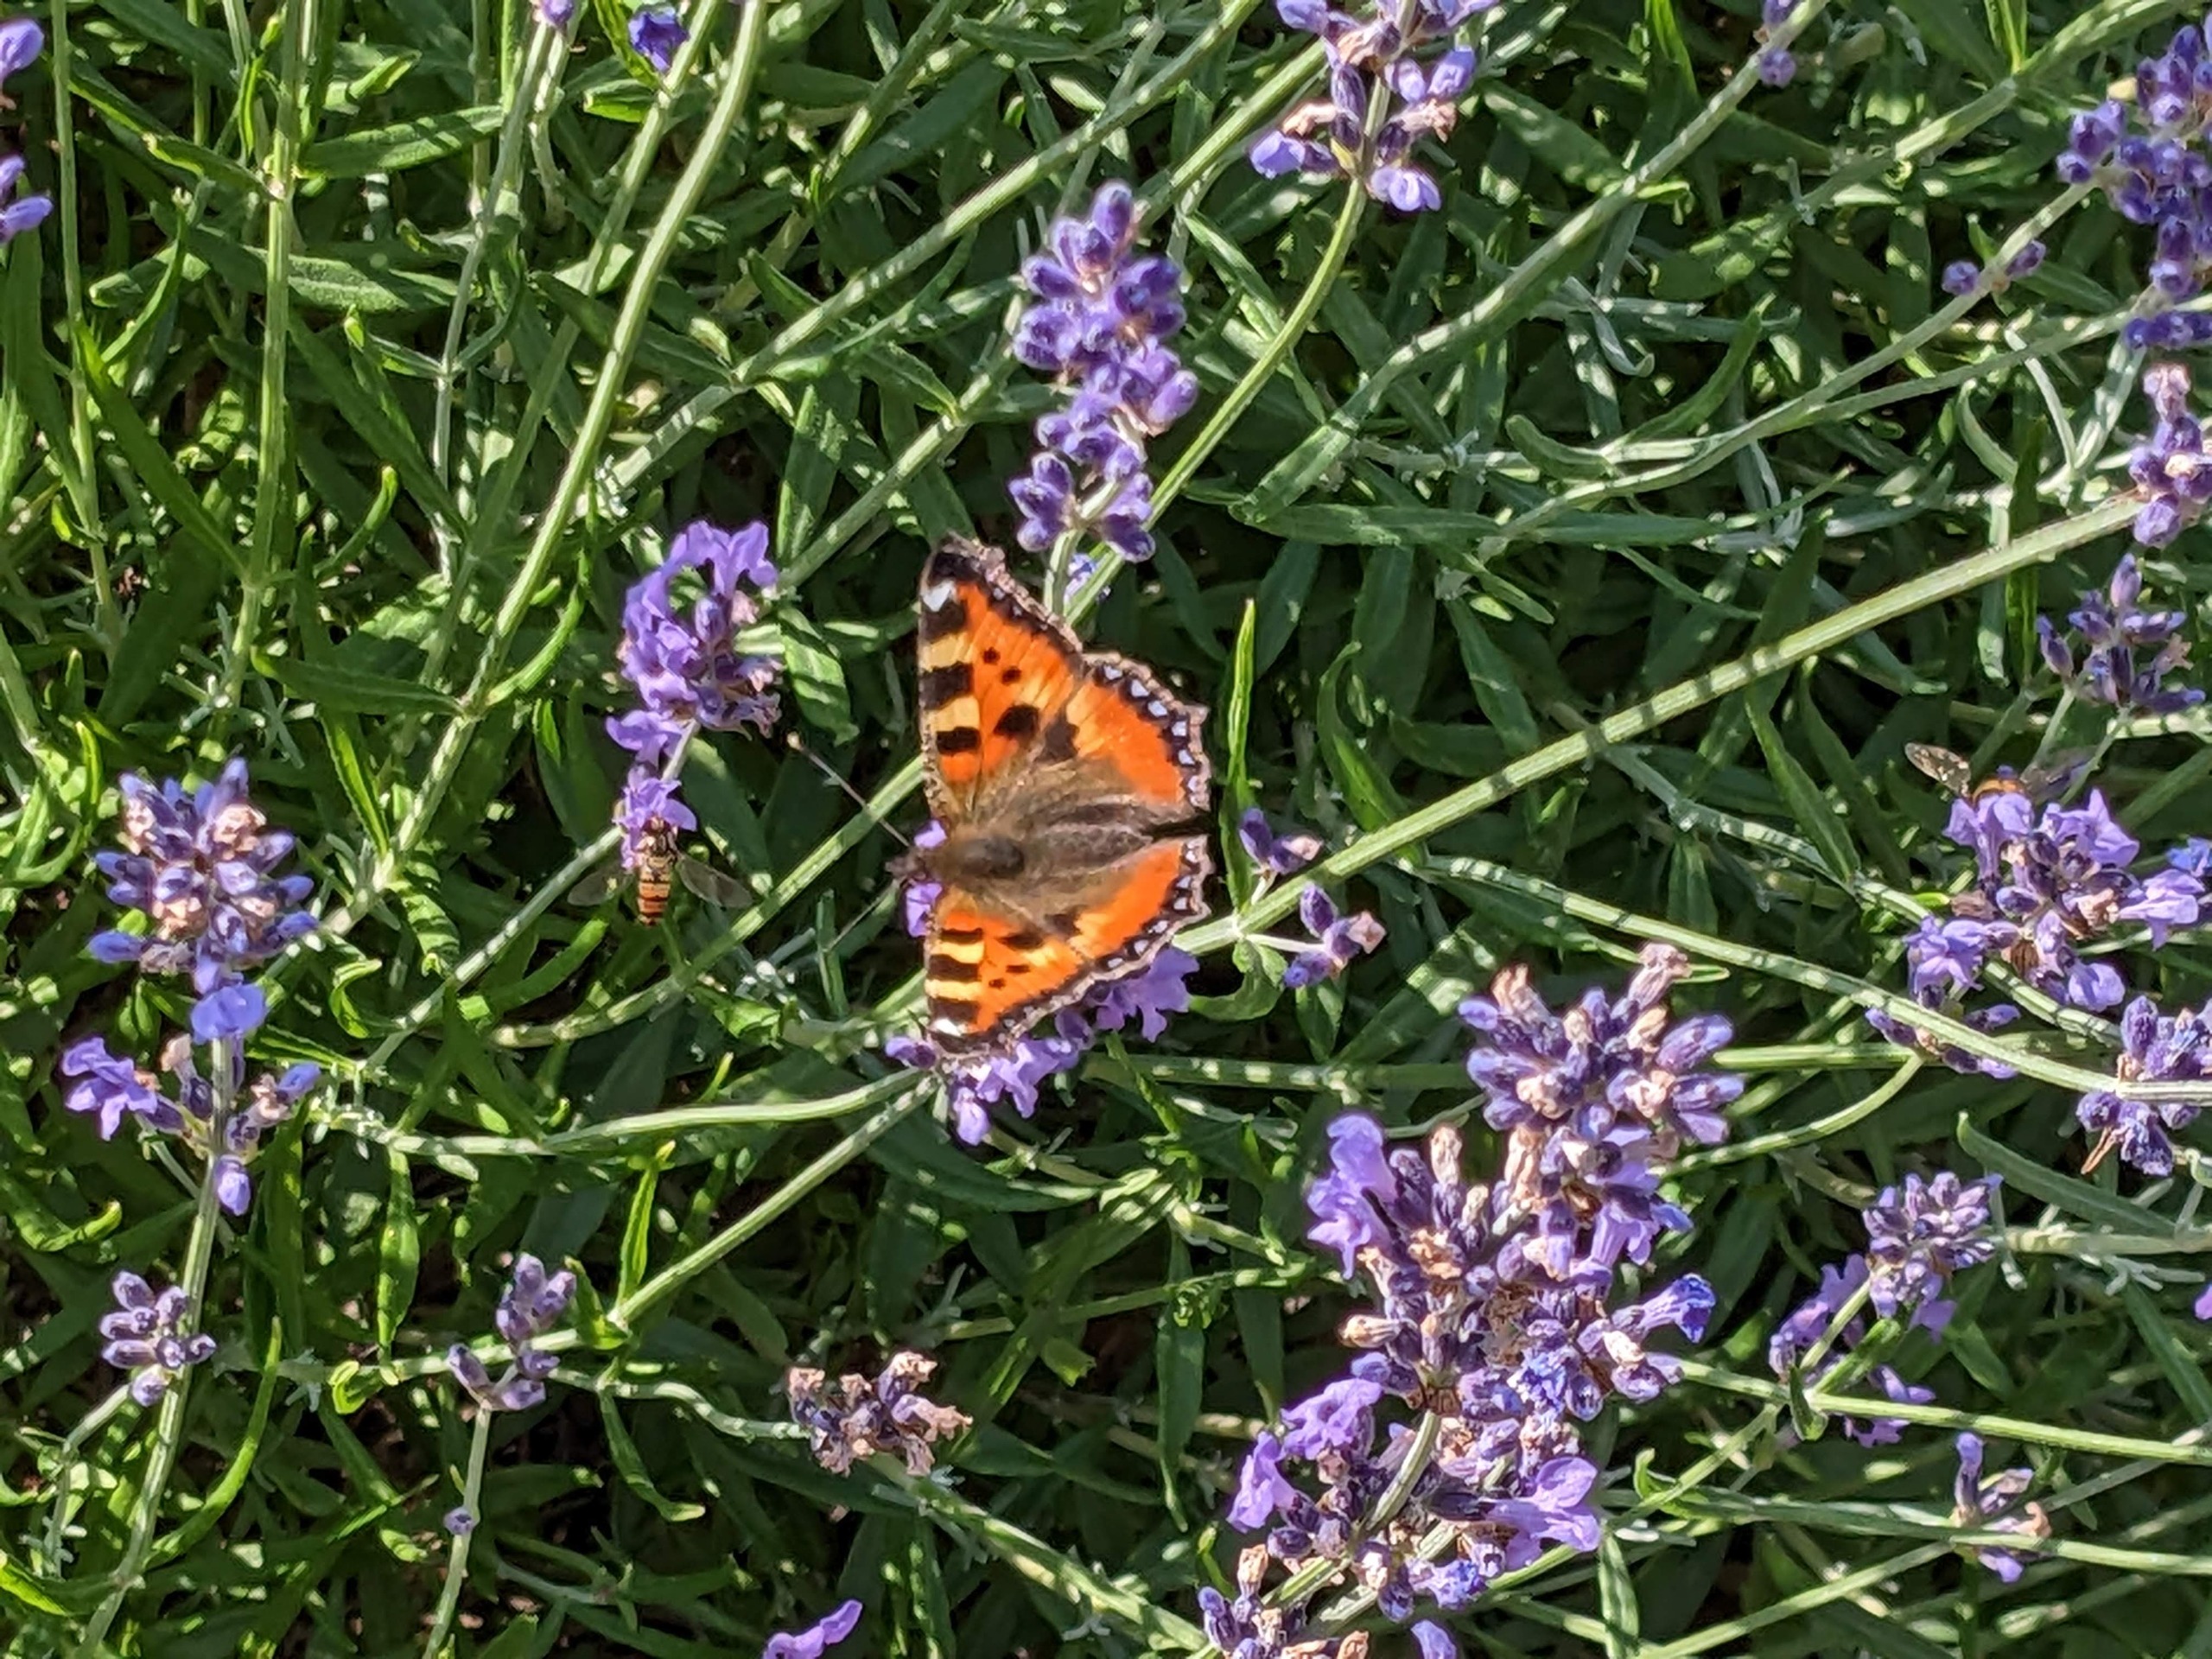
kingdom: Animalia
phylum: Arthropoda
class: Insecta
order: Lepidoptera
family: Nymphalidae
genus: Aglais
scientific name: Aglais urticae
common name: Nældens takvinge
